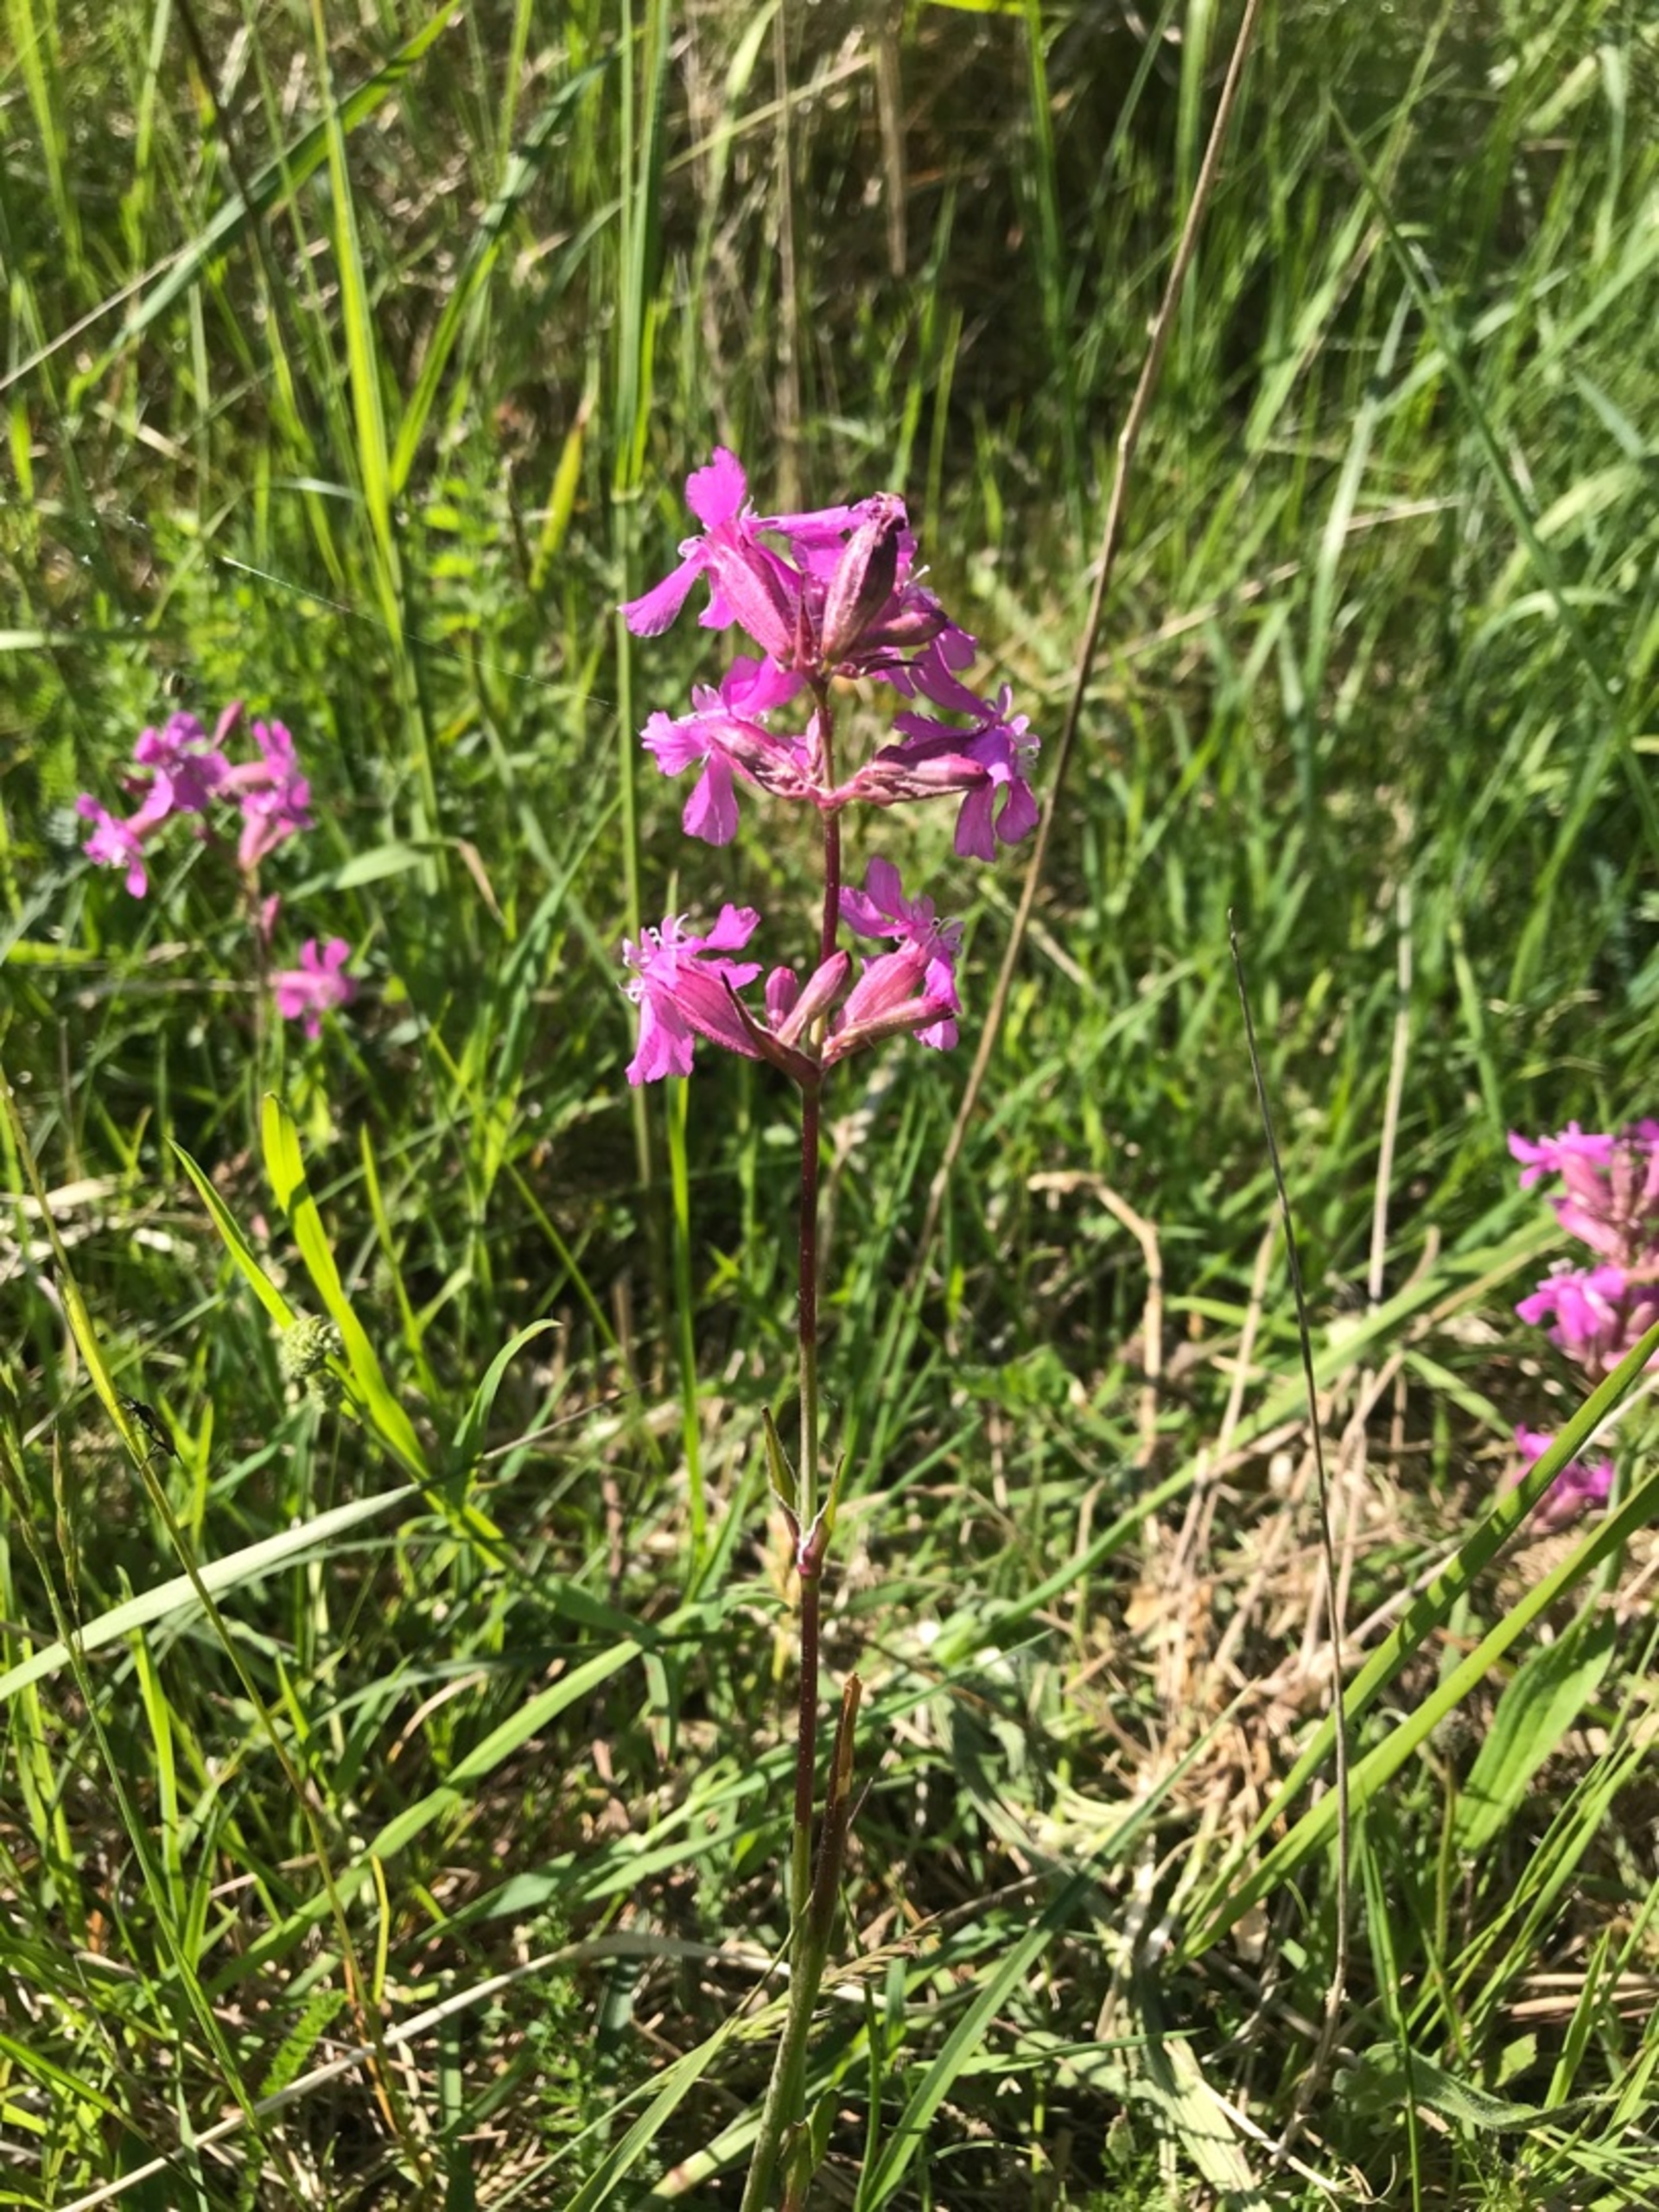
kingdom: Plantae
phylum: Tracheophyta
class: Magnoliopsida
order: Caryophyllales
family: Caryophyllaceae
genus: Viscaria
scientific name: Viscaria vulgaris
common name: Tjærenellike
